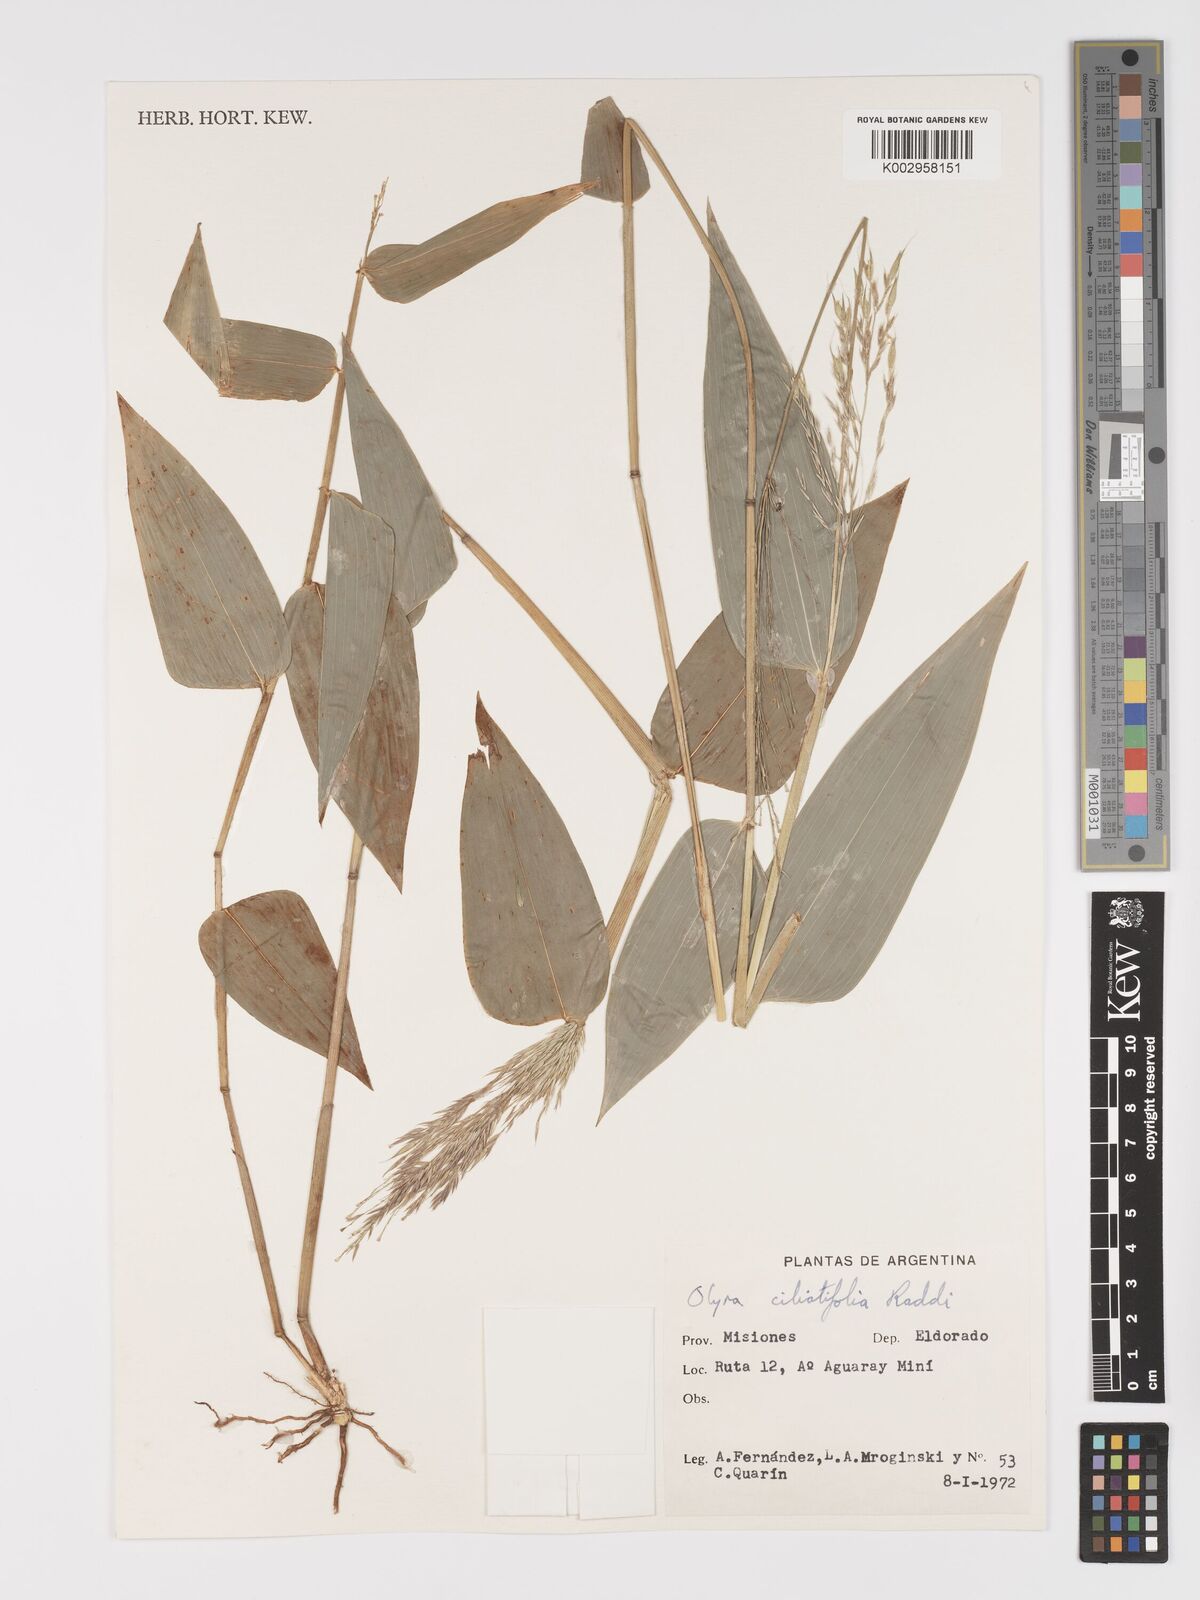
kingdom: Plantae
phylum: Tracheophyta
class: Liliopsida
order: Poales
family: Poaceae
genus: Olyra
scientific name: Olyra ciliatifolia
